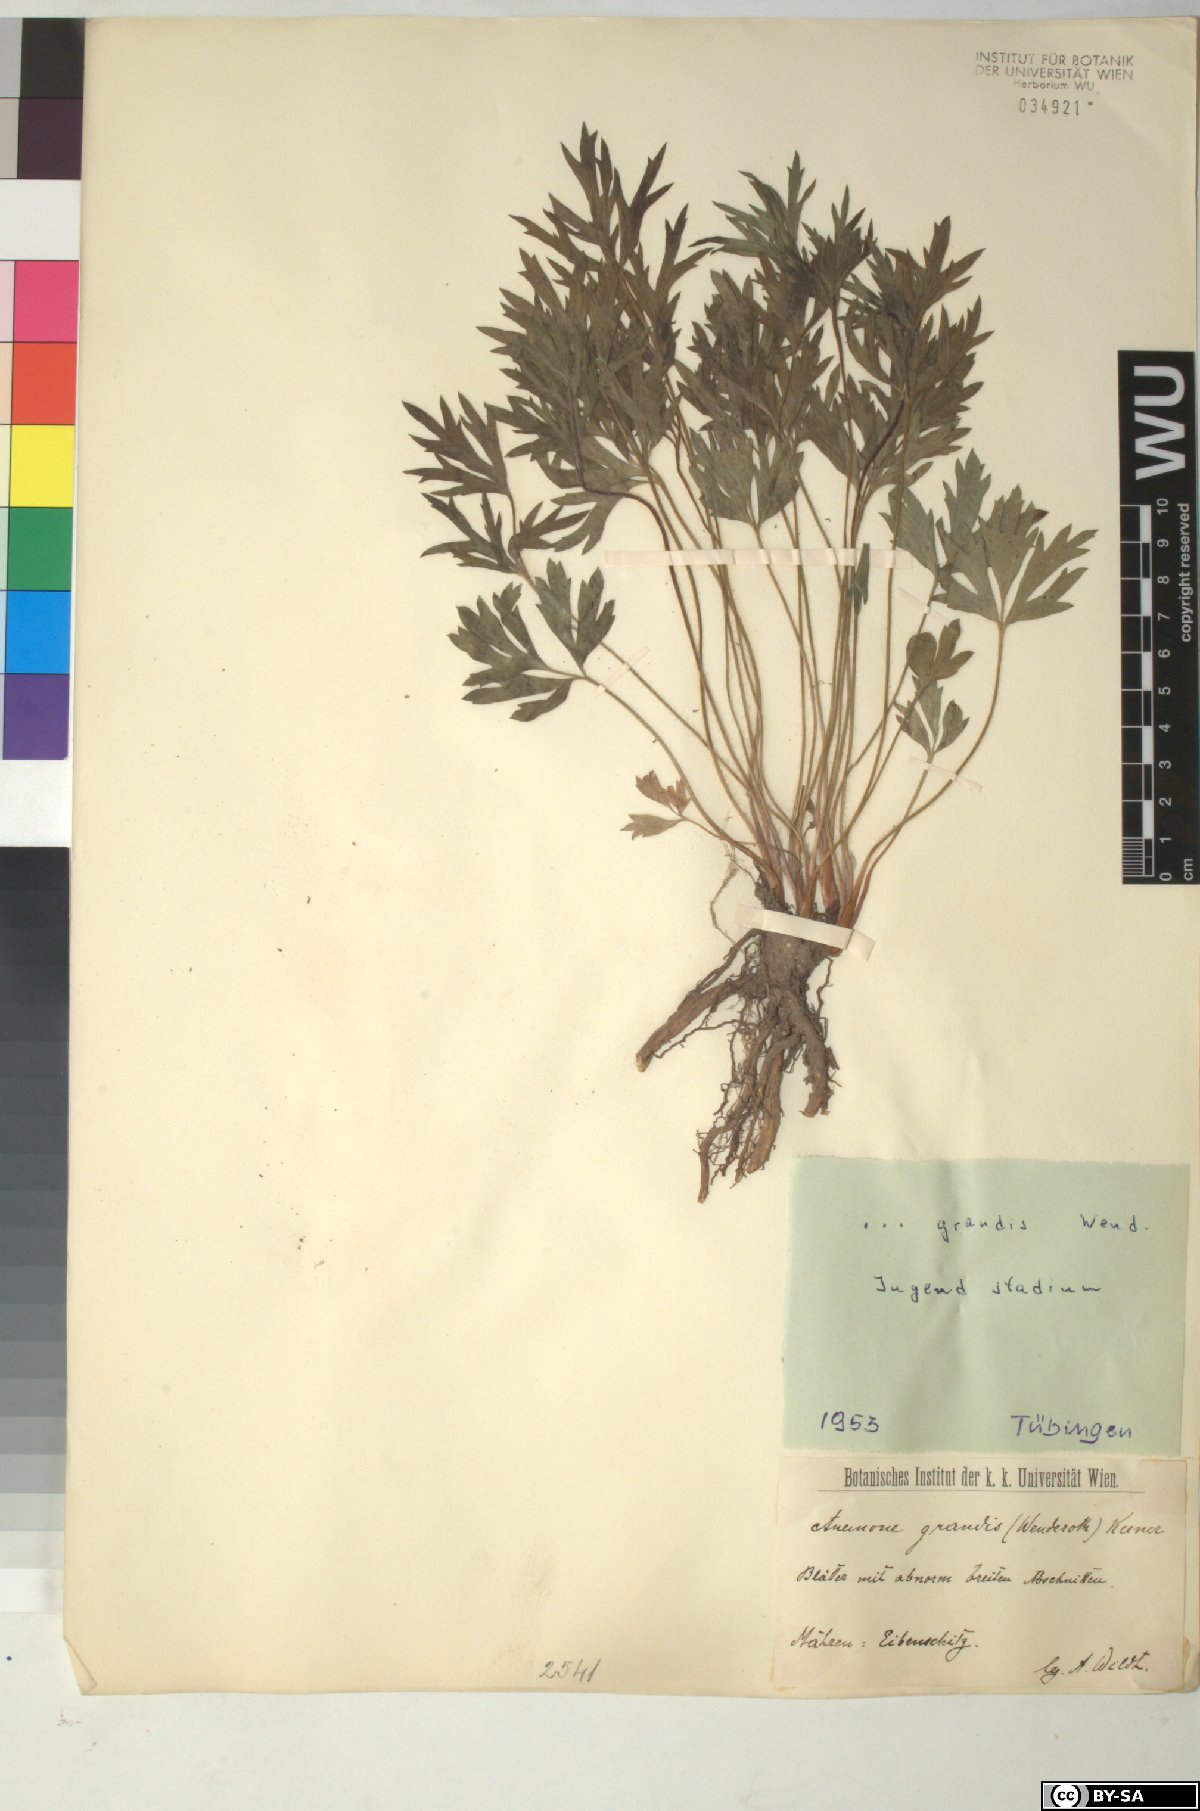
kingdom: Plantae
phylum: Tracheophyta
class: Magnoliopsida
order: Ranunculales
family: Ranunculaceae
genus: Pulsatilla
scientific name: Pulsatilla grandis
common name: Greater pasque flower
